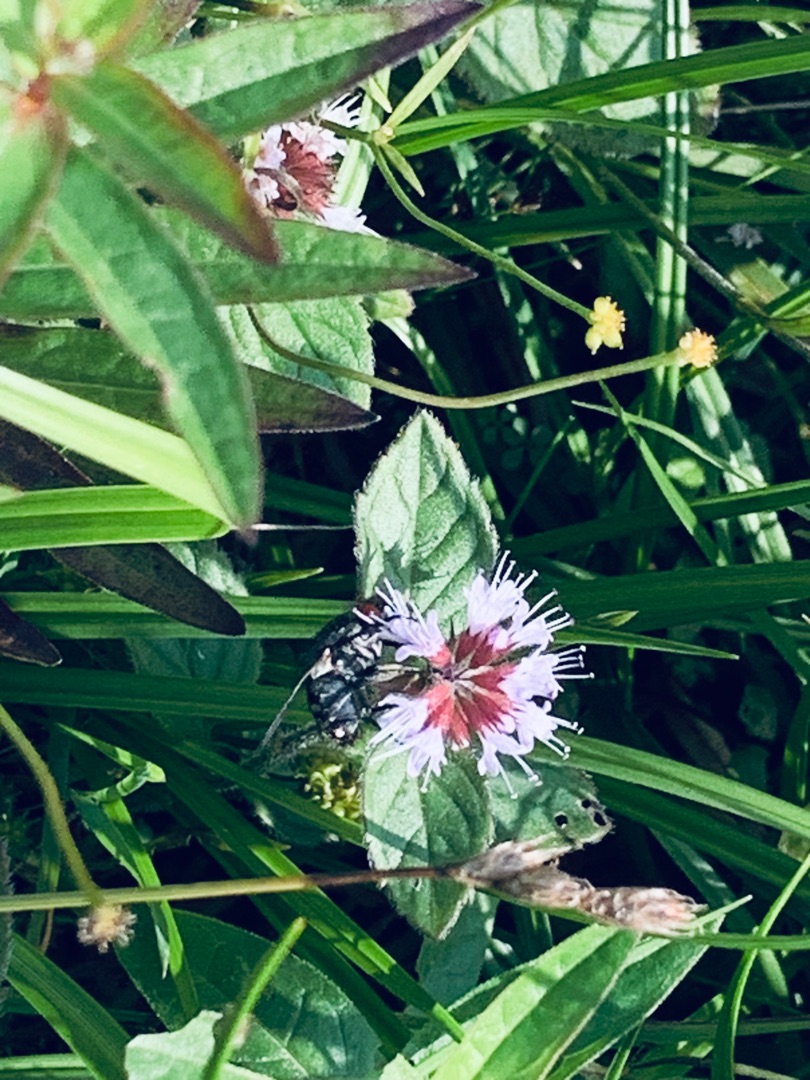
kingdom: Animalia
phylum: Arthropoda
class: Insecta
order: Diptera
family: Sarcophagidae
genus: Sarcophaga
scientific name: Sarcophaga
